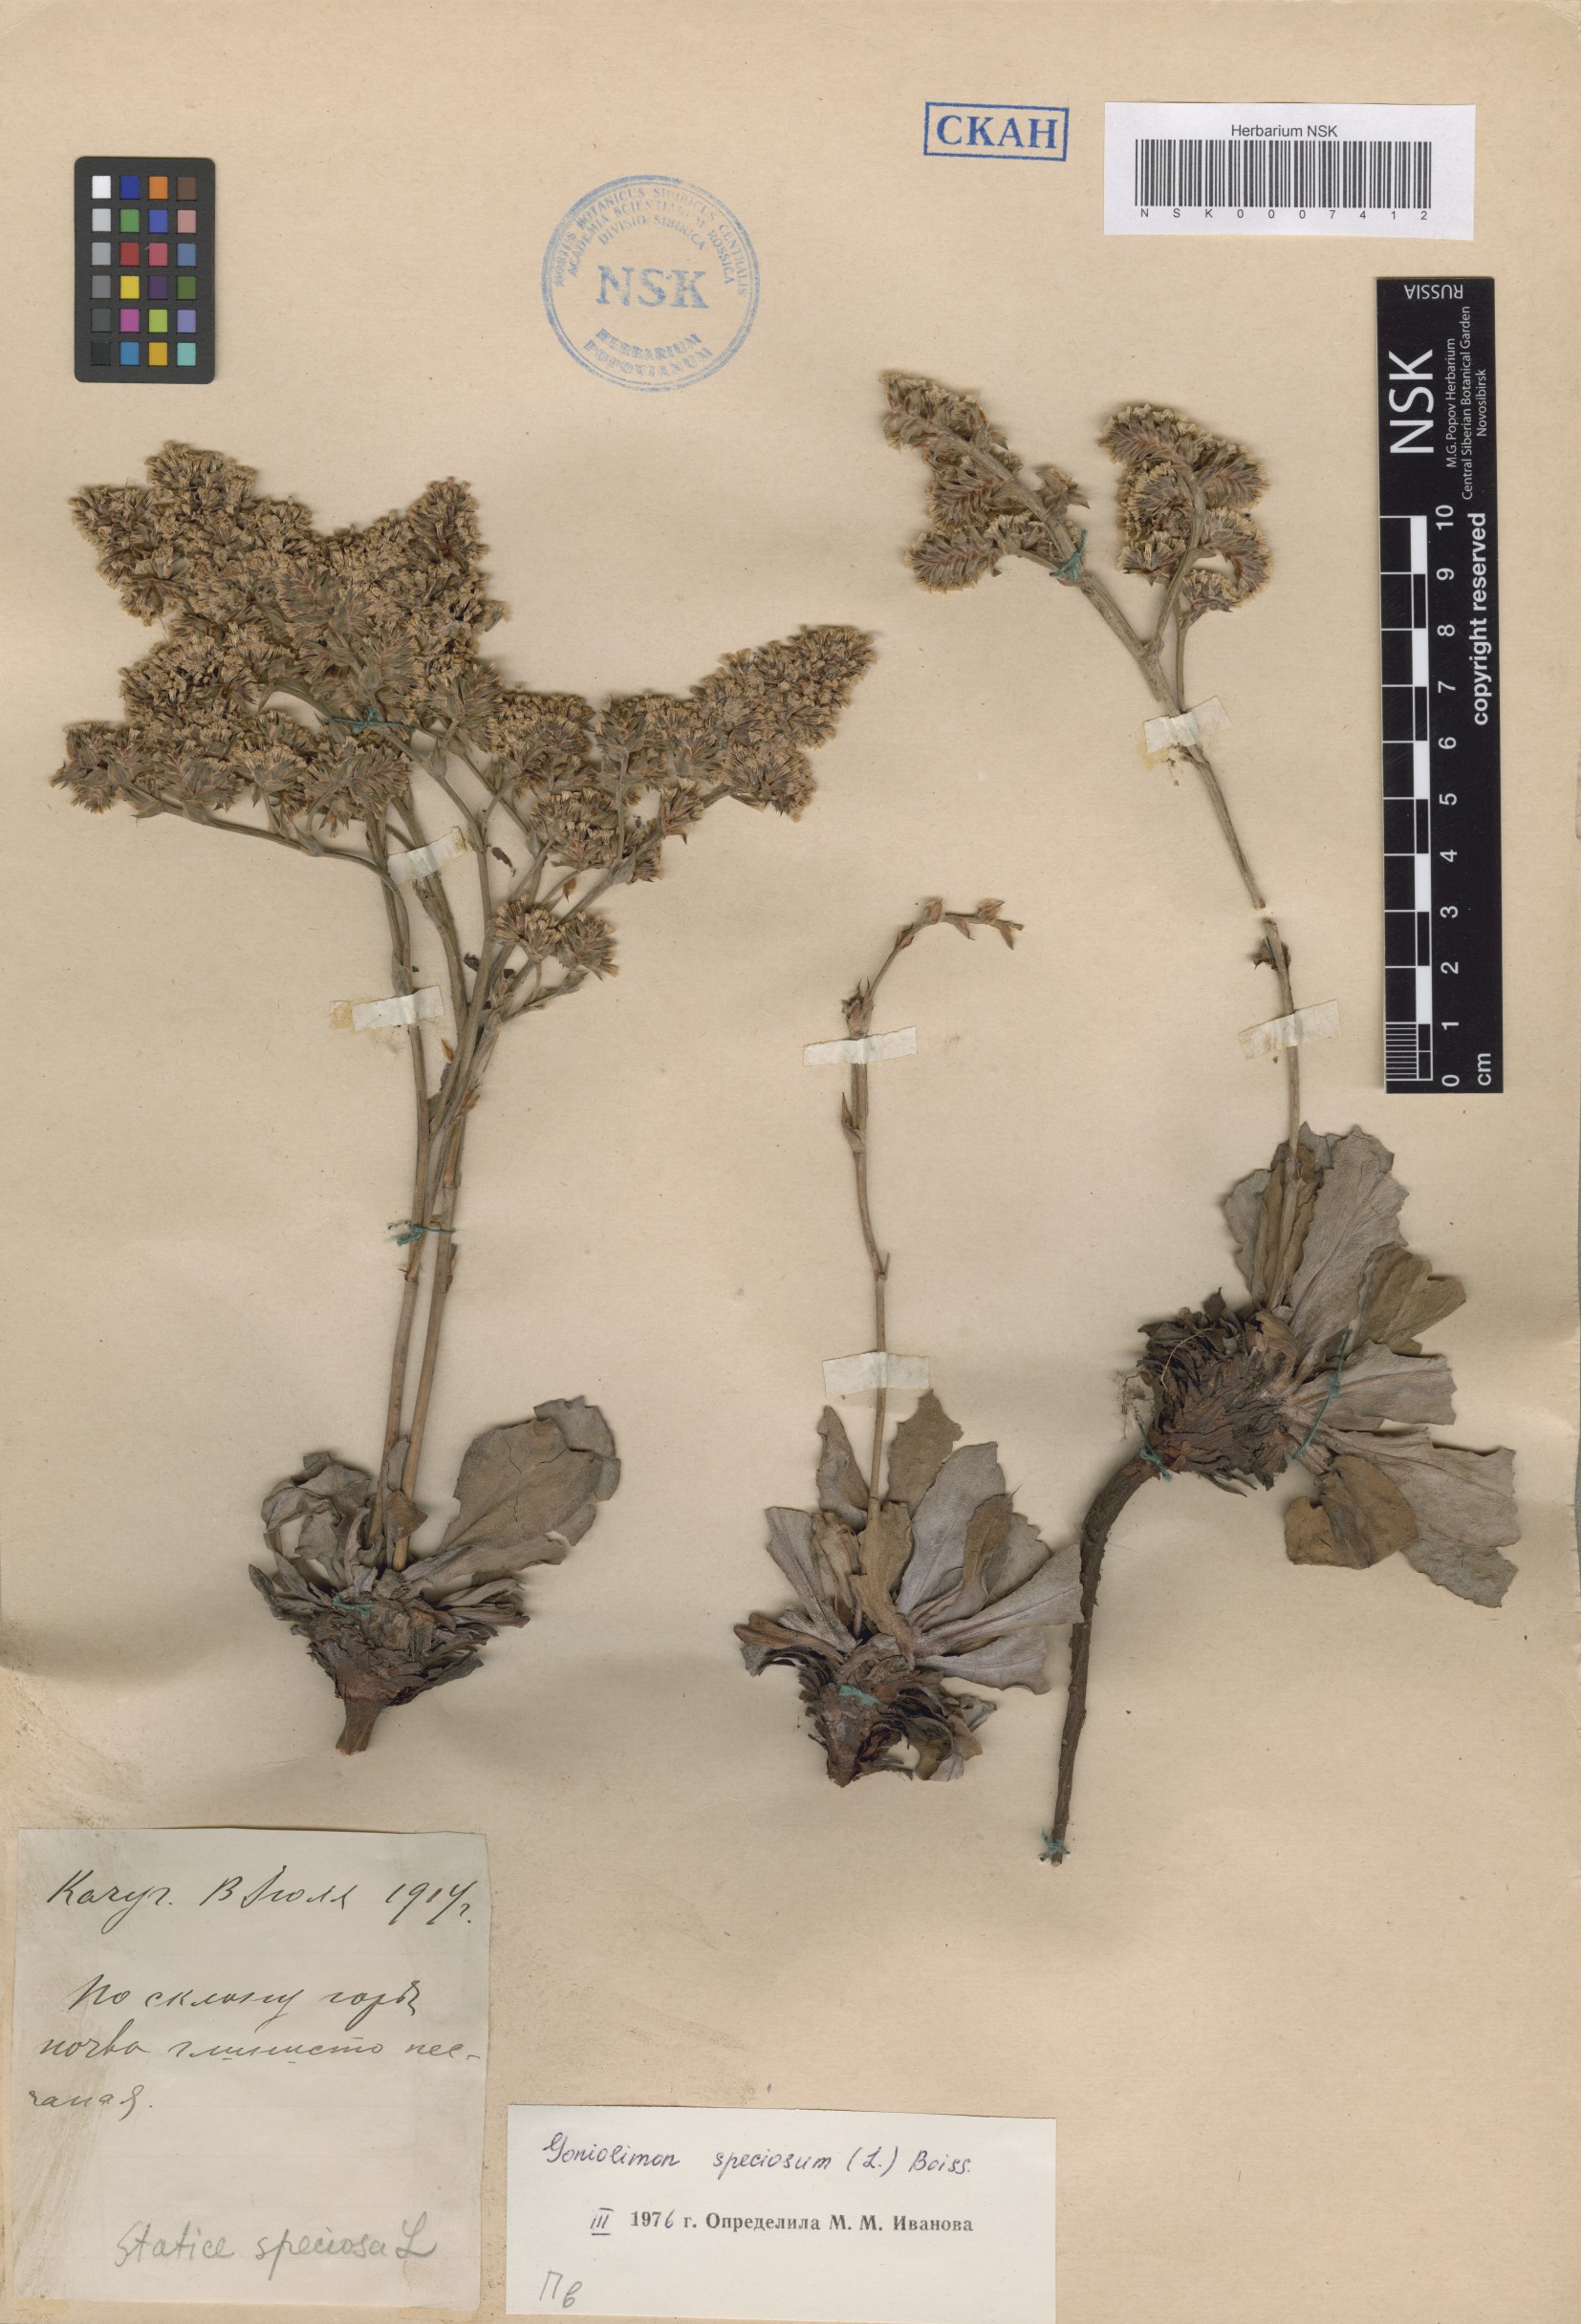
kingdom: Plantae
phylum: Tracheophyta
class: Magnoliopsida
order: Caryophyllales
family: Plumbaginaceae
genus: Goniolimon
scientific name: Goniolimon speciosum
